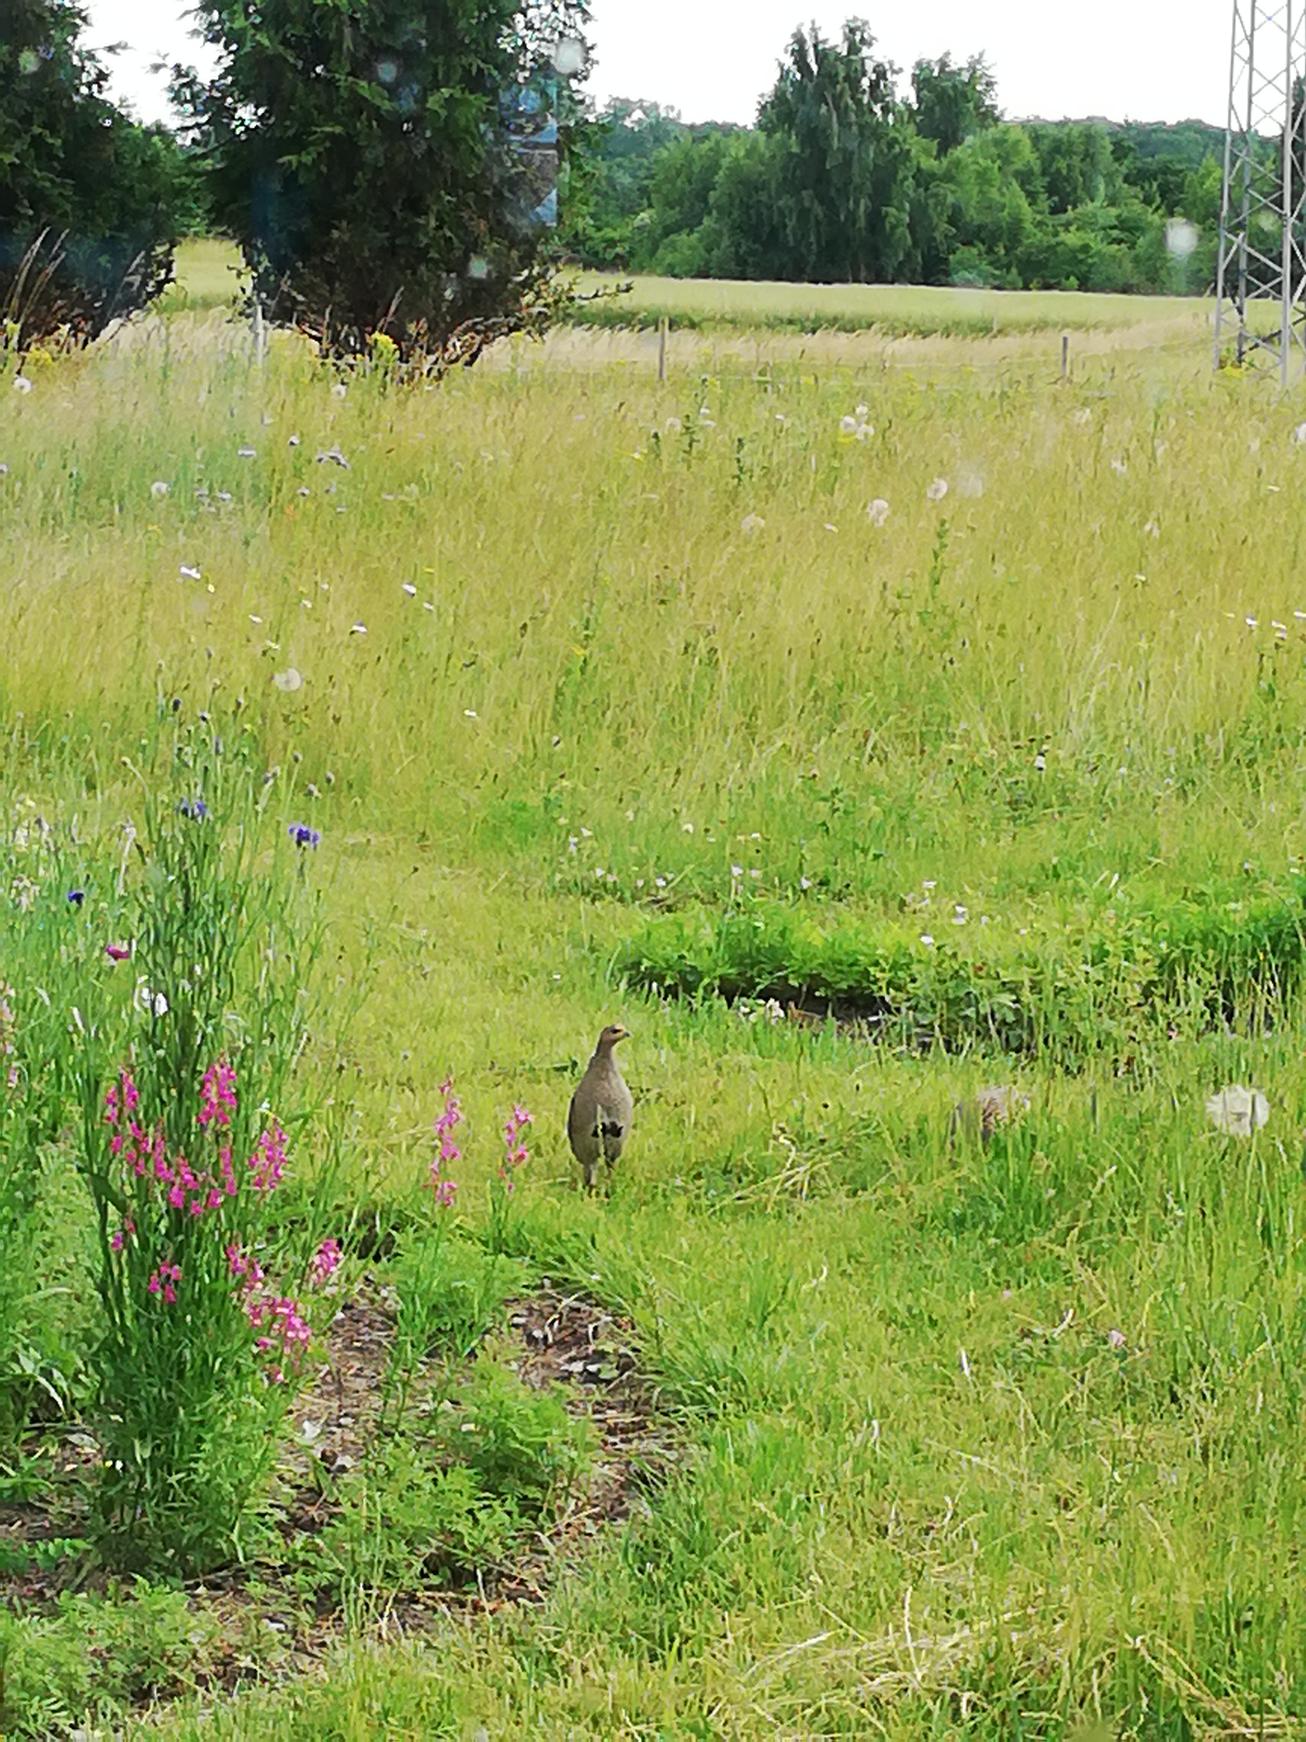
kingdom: Animalia
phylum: Chordata
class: Aves
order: Galliformes
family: Phasianidae
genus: Perdix
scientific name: Perdix perdix
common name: Agerhøne
